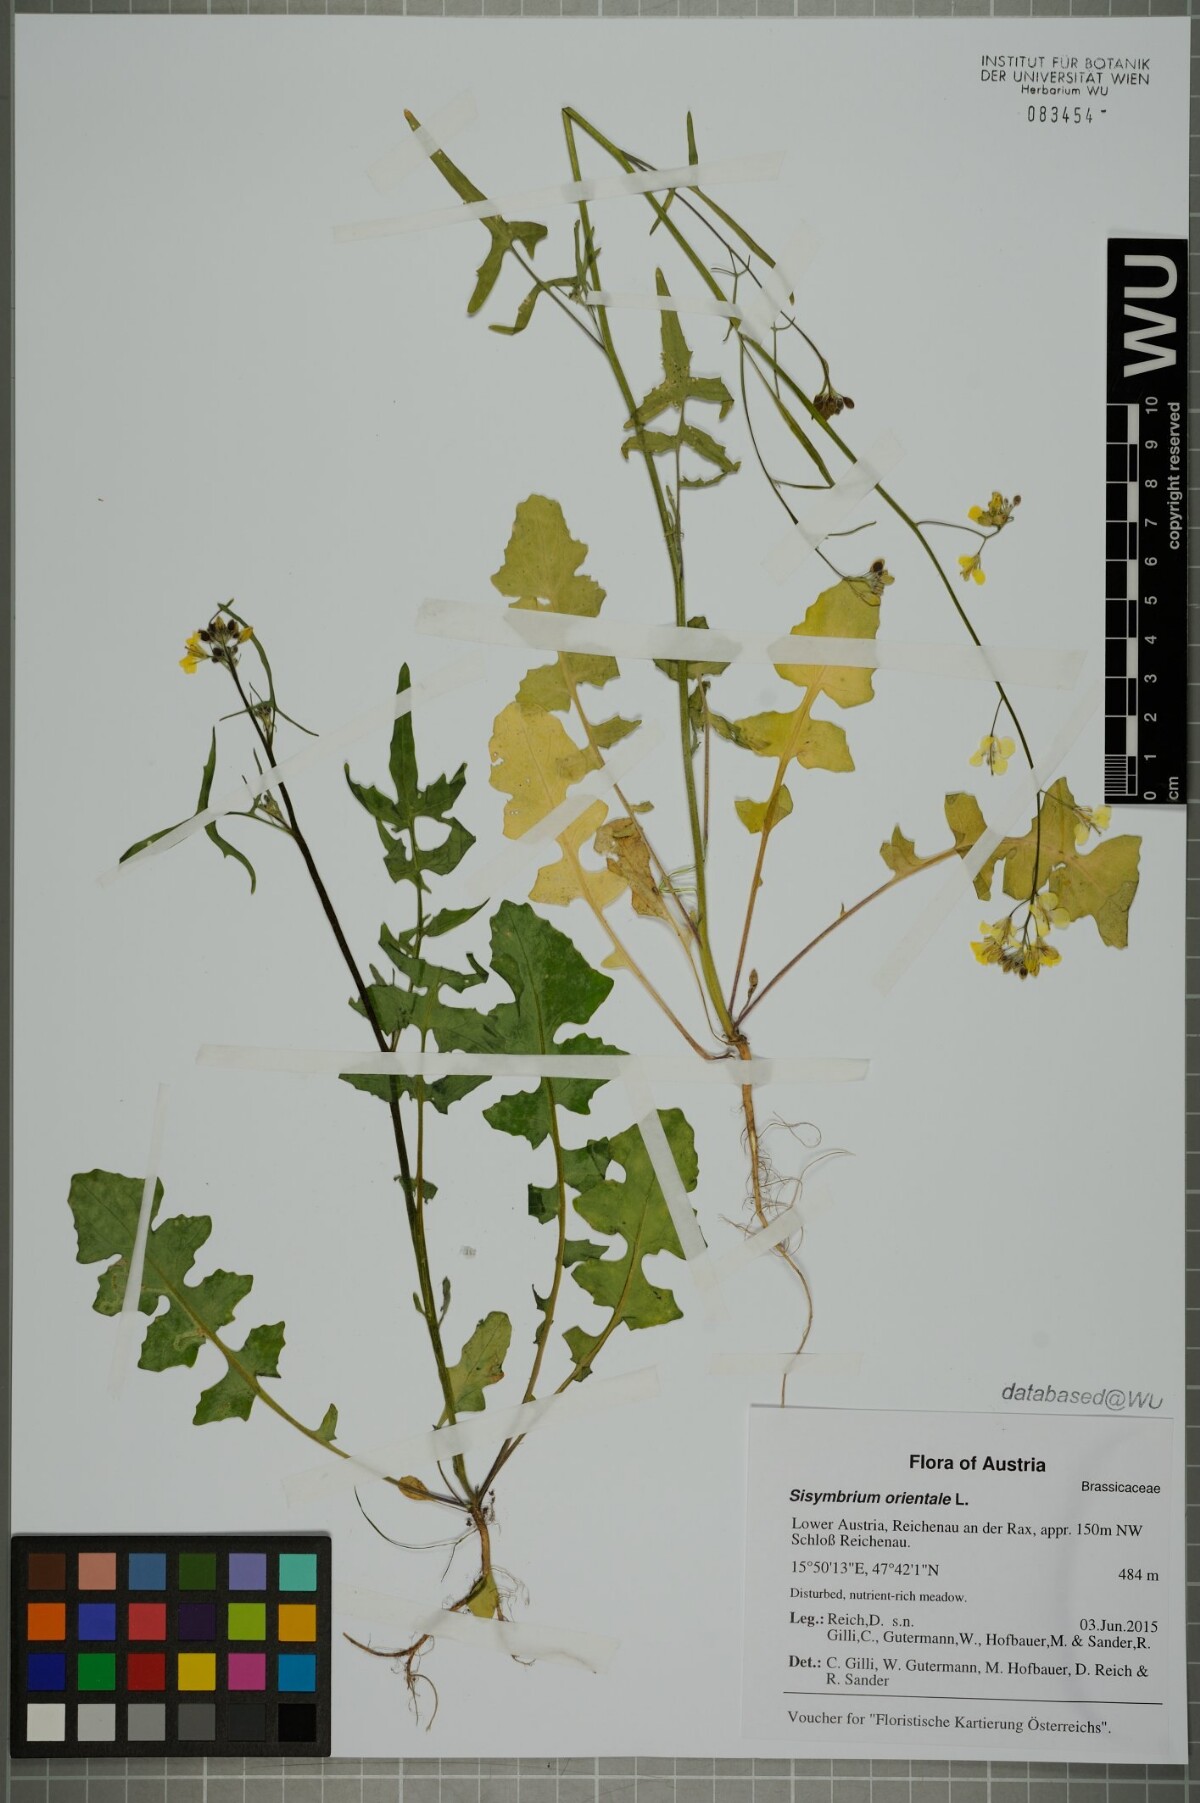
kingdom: Plantae
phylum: Tracheophyta
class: Magnoliopsida
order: Brassicales
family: Brassicaceae
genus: Sisymbrium
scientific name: Sisymbrium orientale
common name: Eastern rocket
